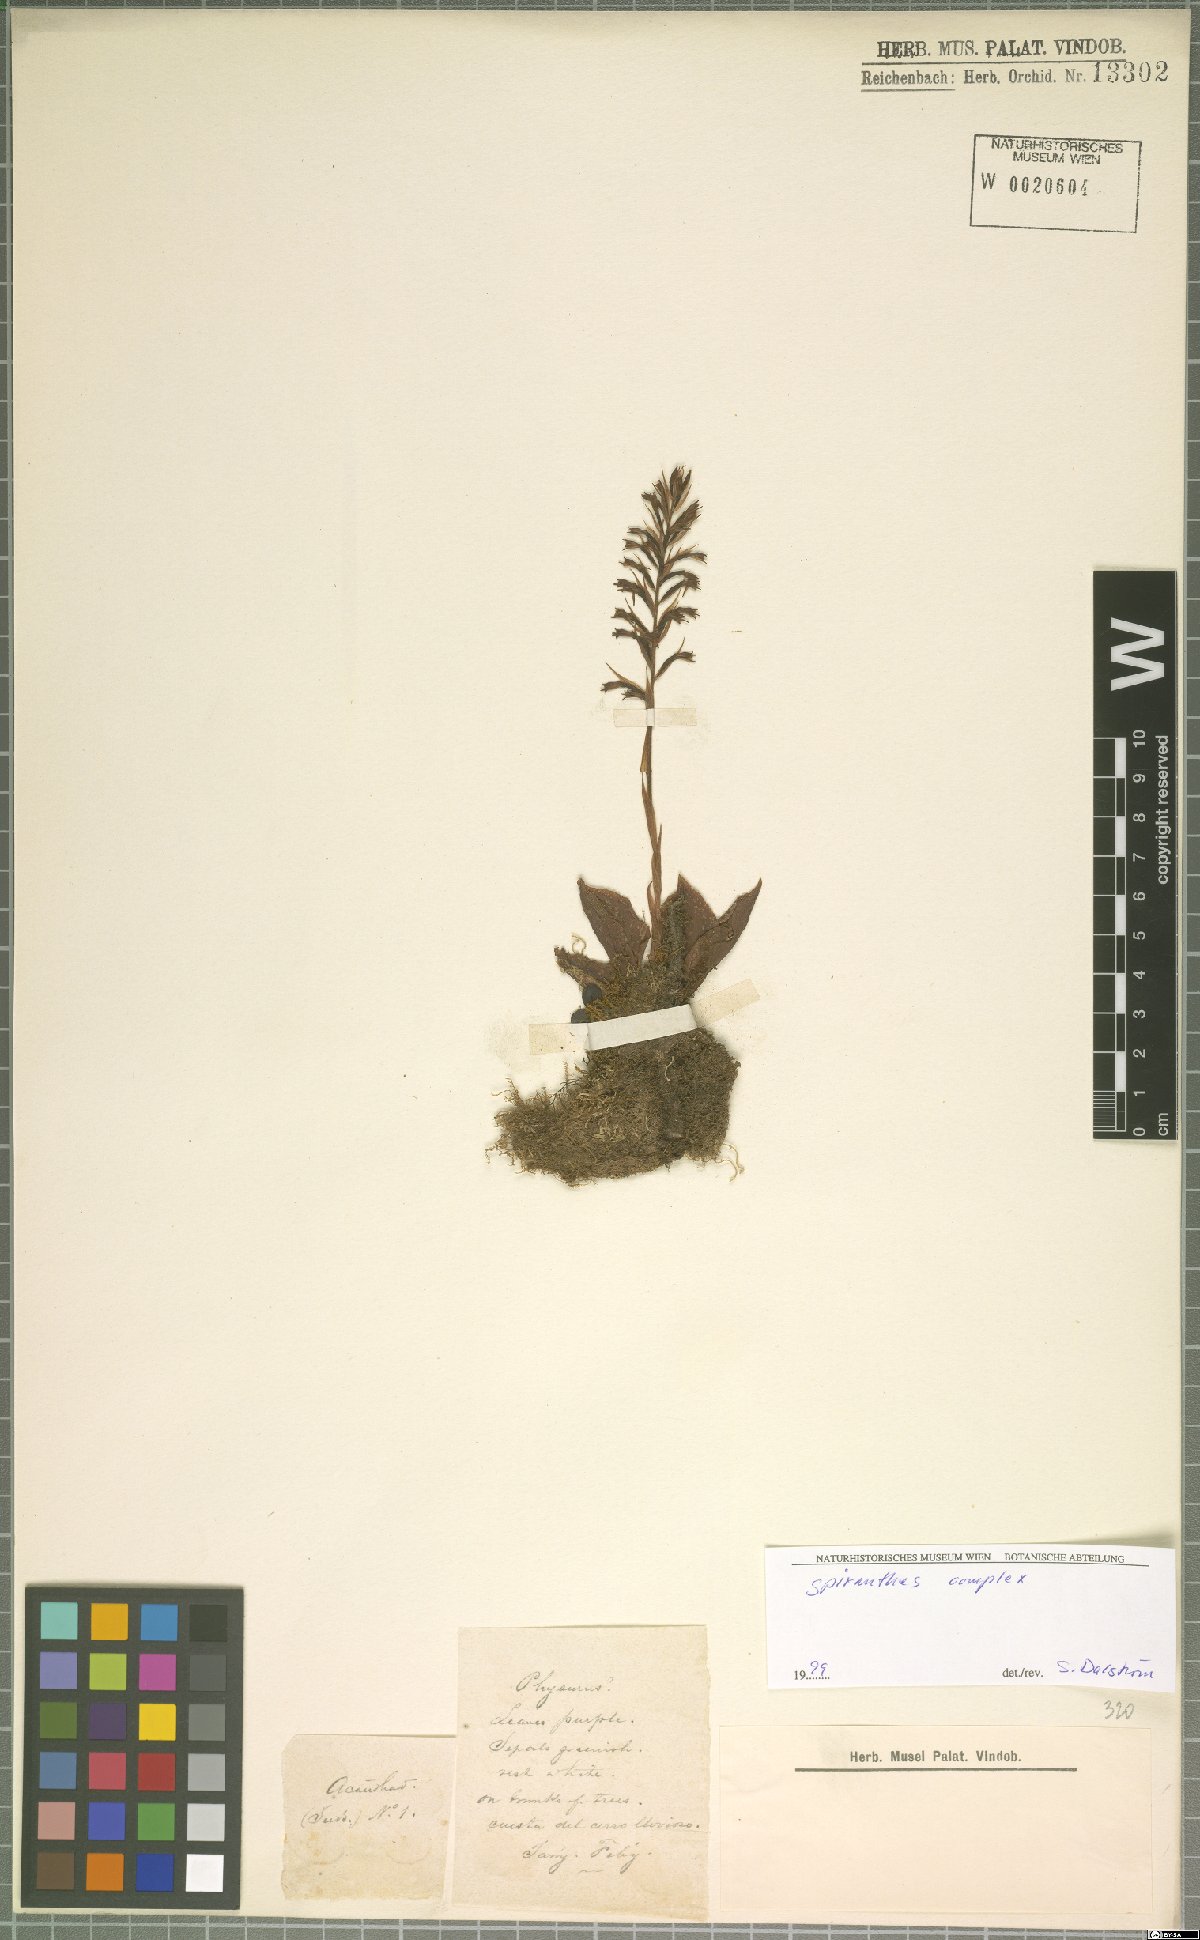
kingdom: Plantae
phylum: Tracheophyta
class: Liliopsida
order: Asparagales
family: Orchidaceae
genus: Spiranthes
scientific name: Spiranthes
